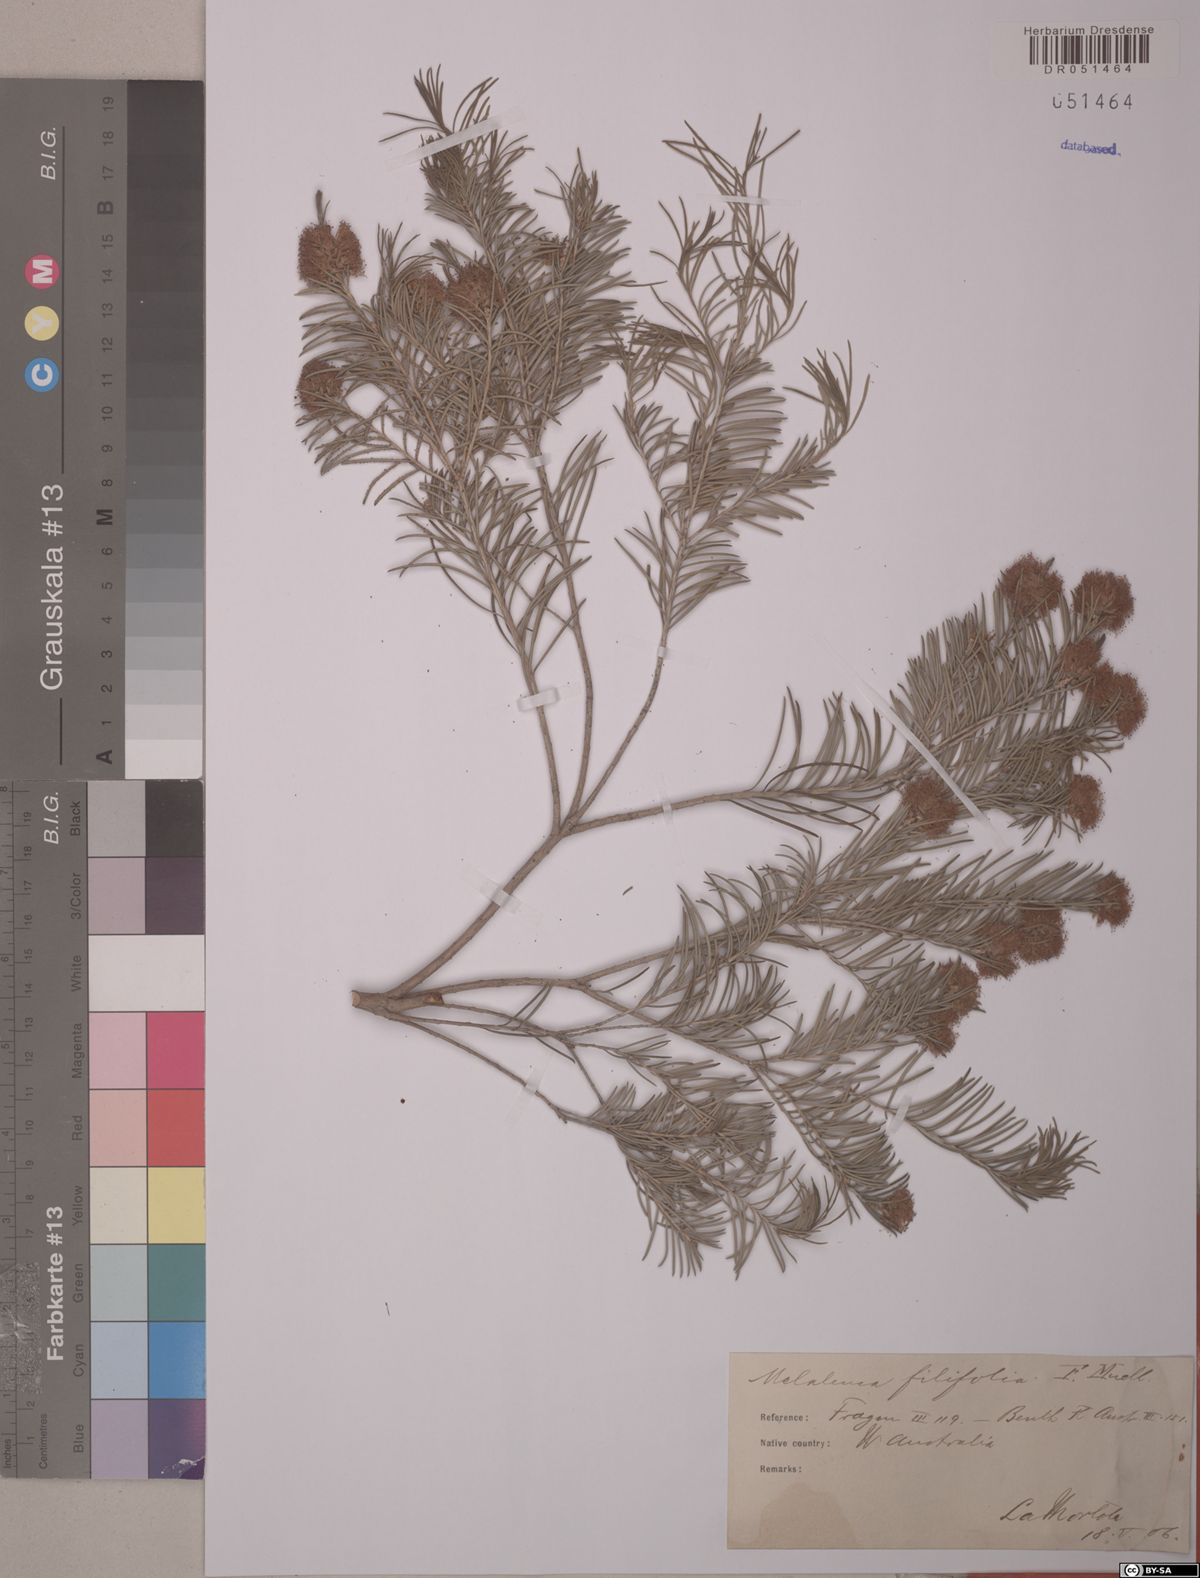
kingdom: Plantae
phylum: Tracheophyta
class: Magnoliopsida
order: Myrtales
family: Myrtaceae
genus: Melaleuca
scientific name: Melaleuca filifolia
